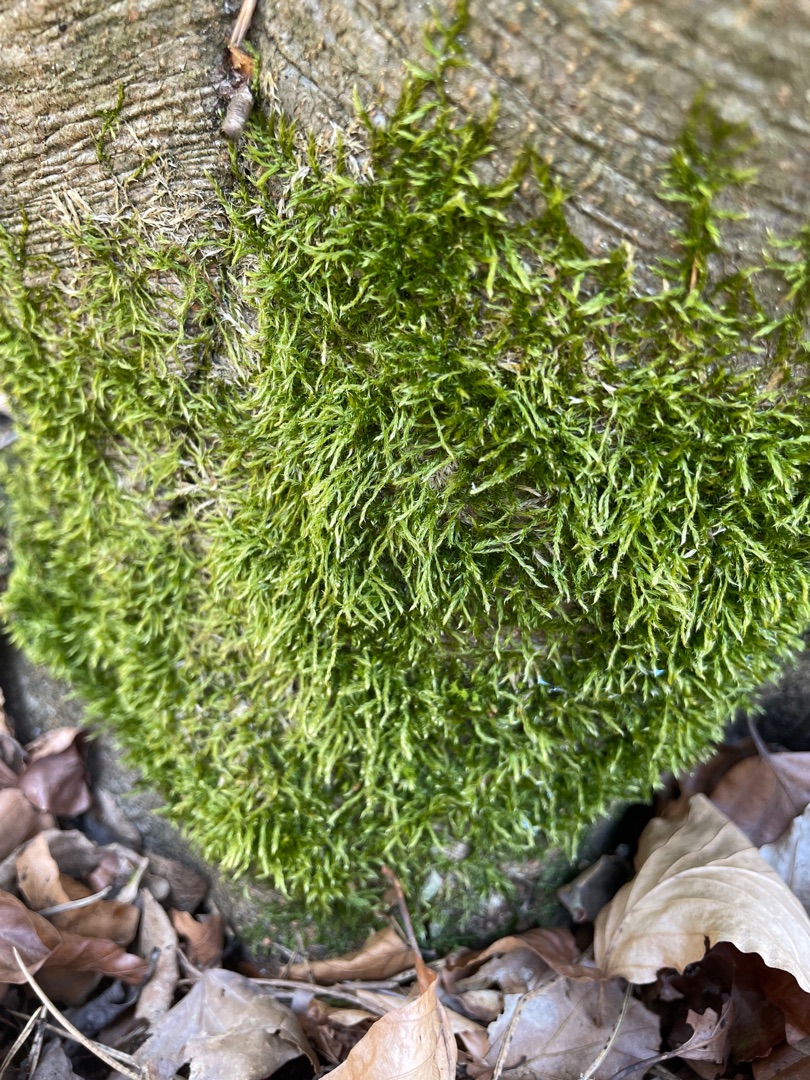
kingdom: Plantae
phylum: Bryophyta
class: Bryopsida
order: Hypnales
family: Hypnaceae
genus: Hypnum
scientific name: Hypnum
